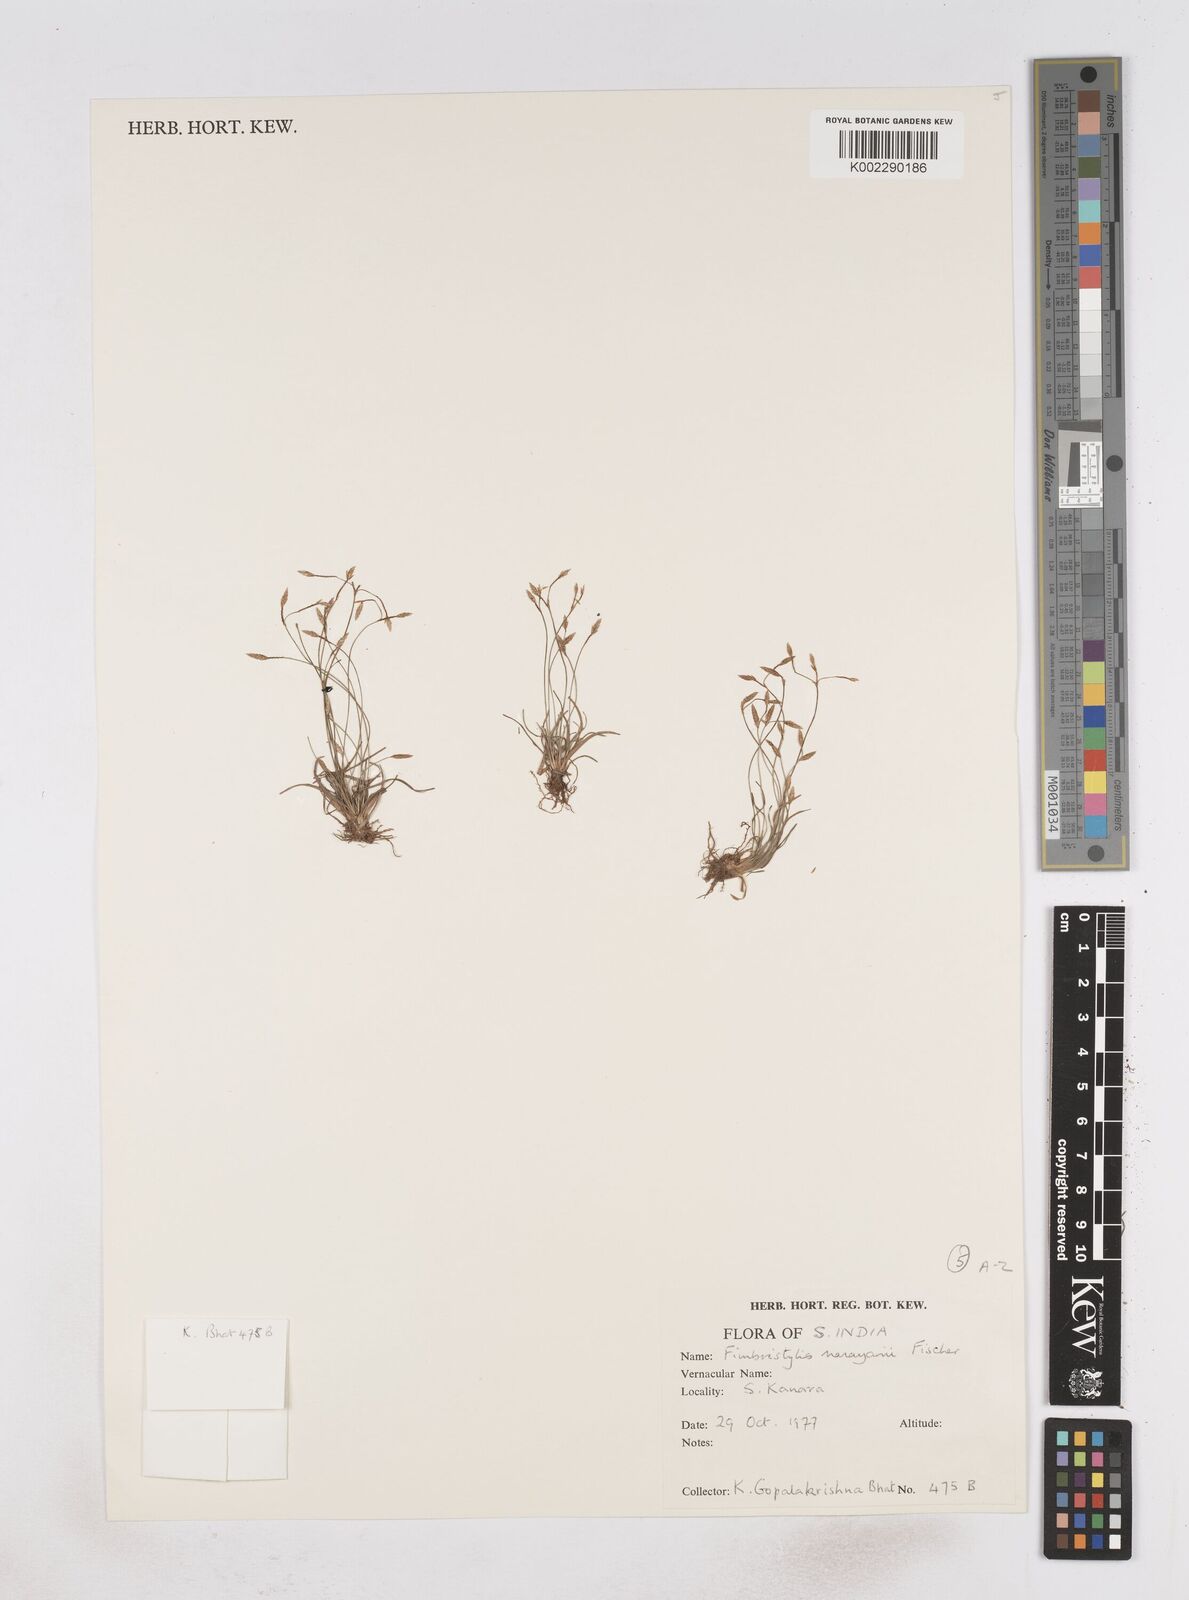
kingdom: Plantae
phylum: Tracheophyta
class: Liliopsida
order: Poales
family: Cyperaceae
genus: Fimbristylis
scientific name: Fimbristylis narayanii
